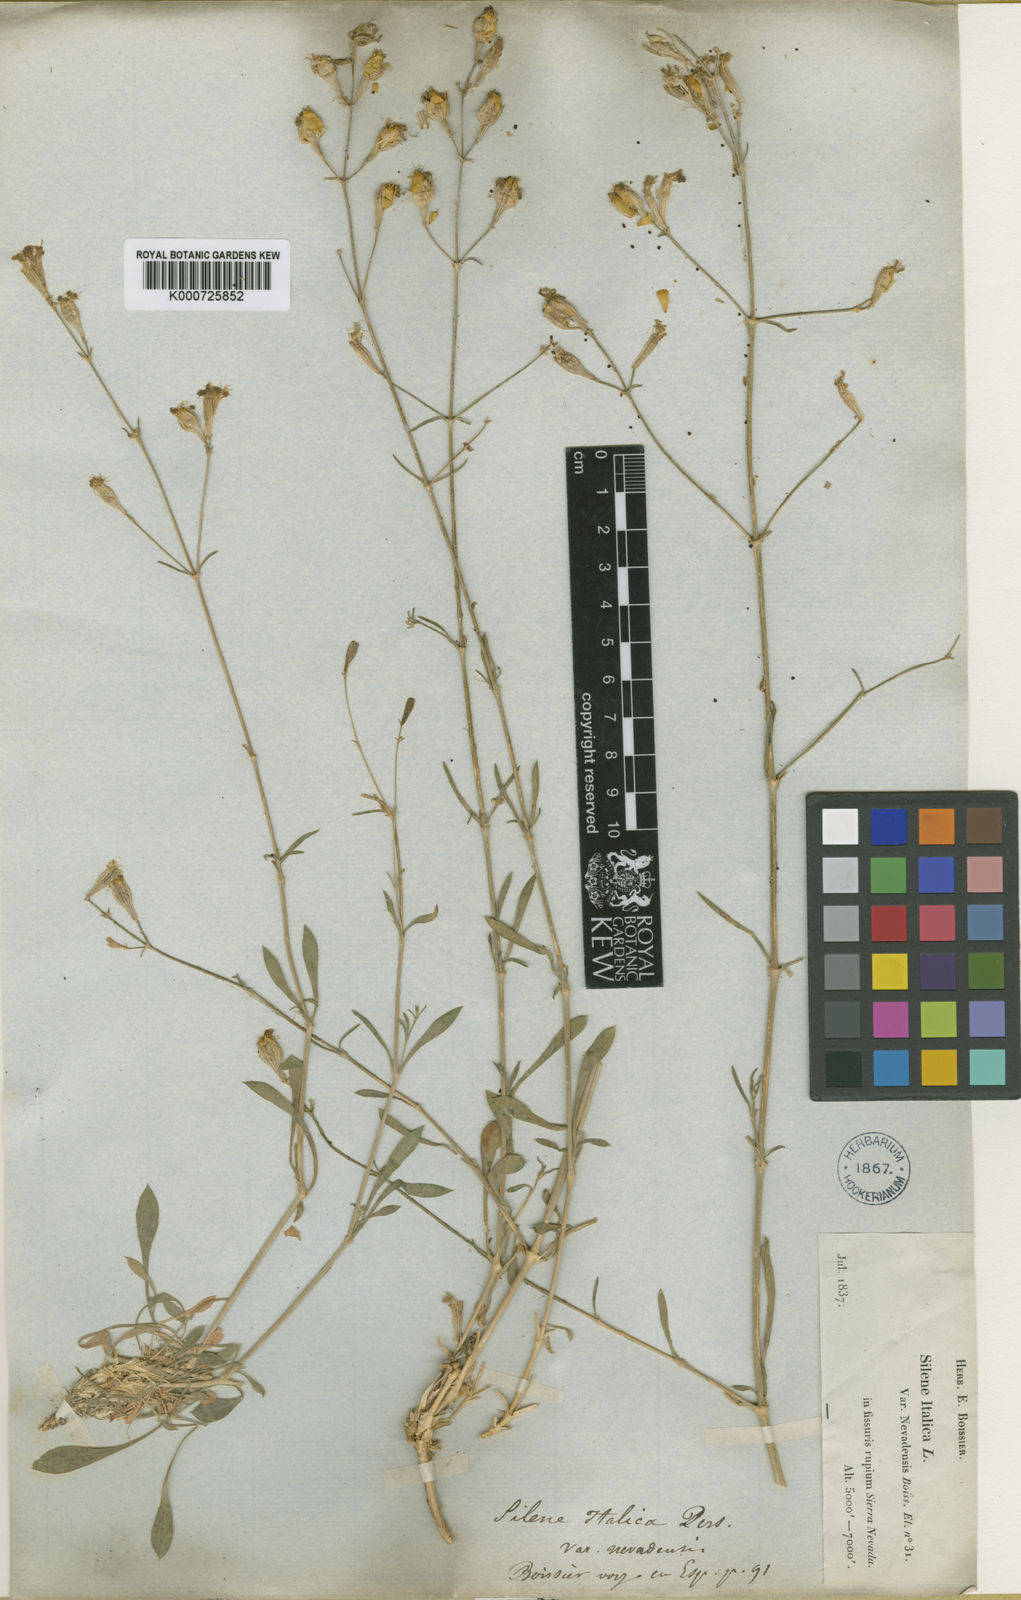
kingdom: Plantae
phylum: Tracheophyta
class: Magnoliopsida
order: Caryophyllales
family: Caryophyllaceae
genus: Silene
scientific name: Silene patula
